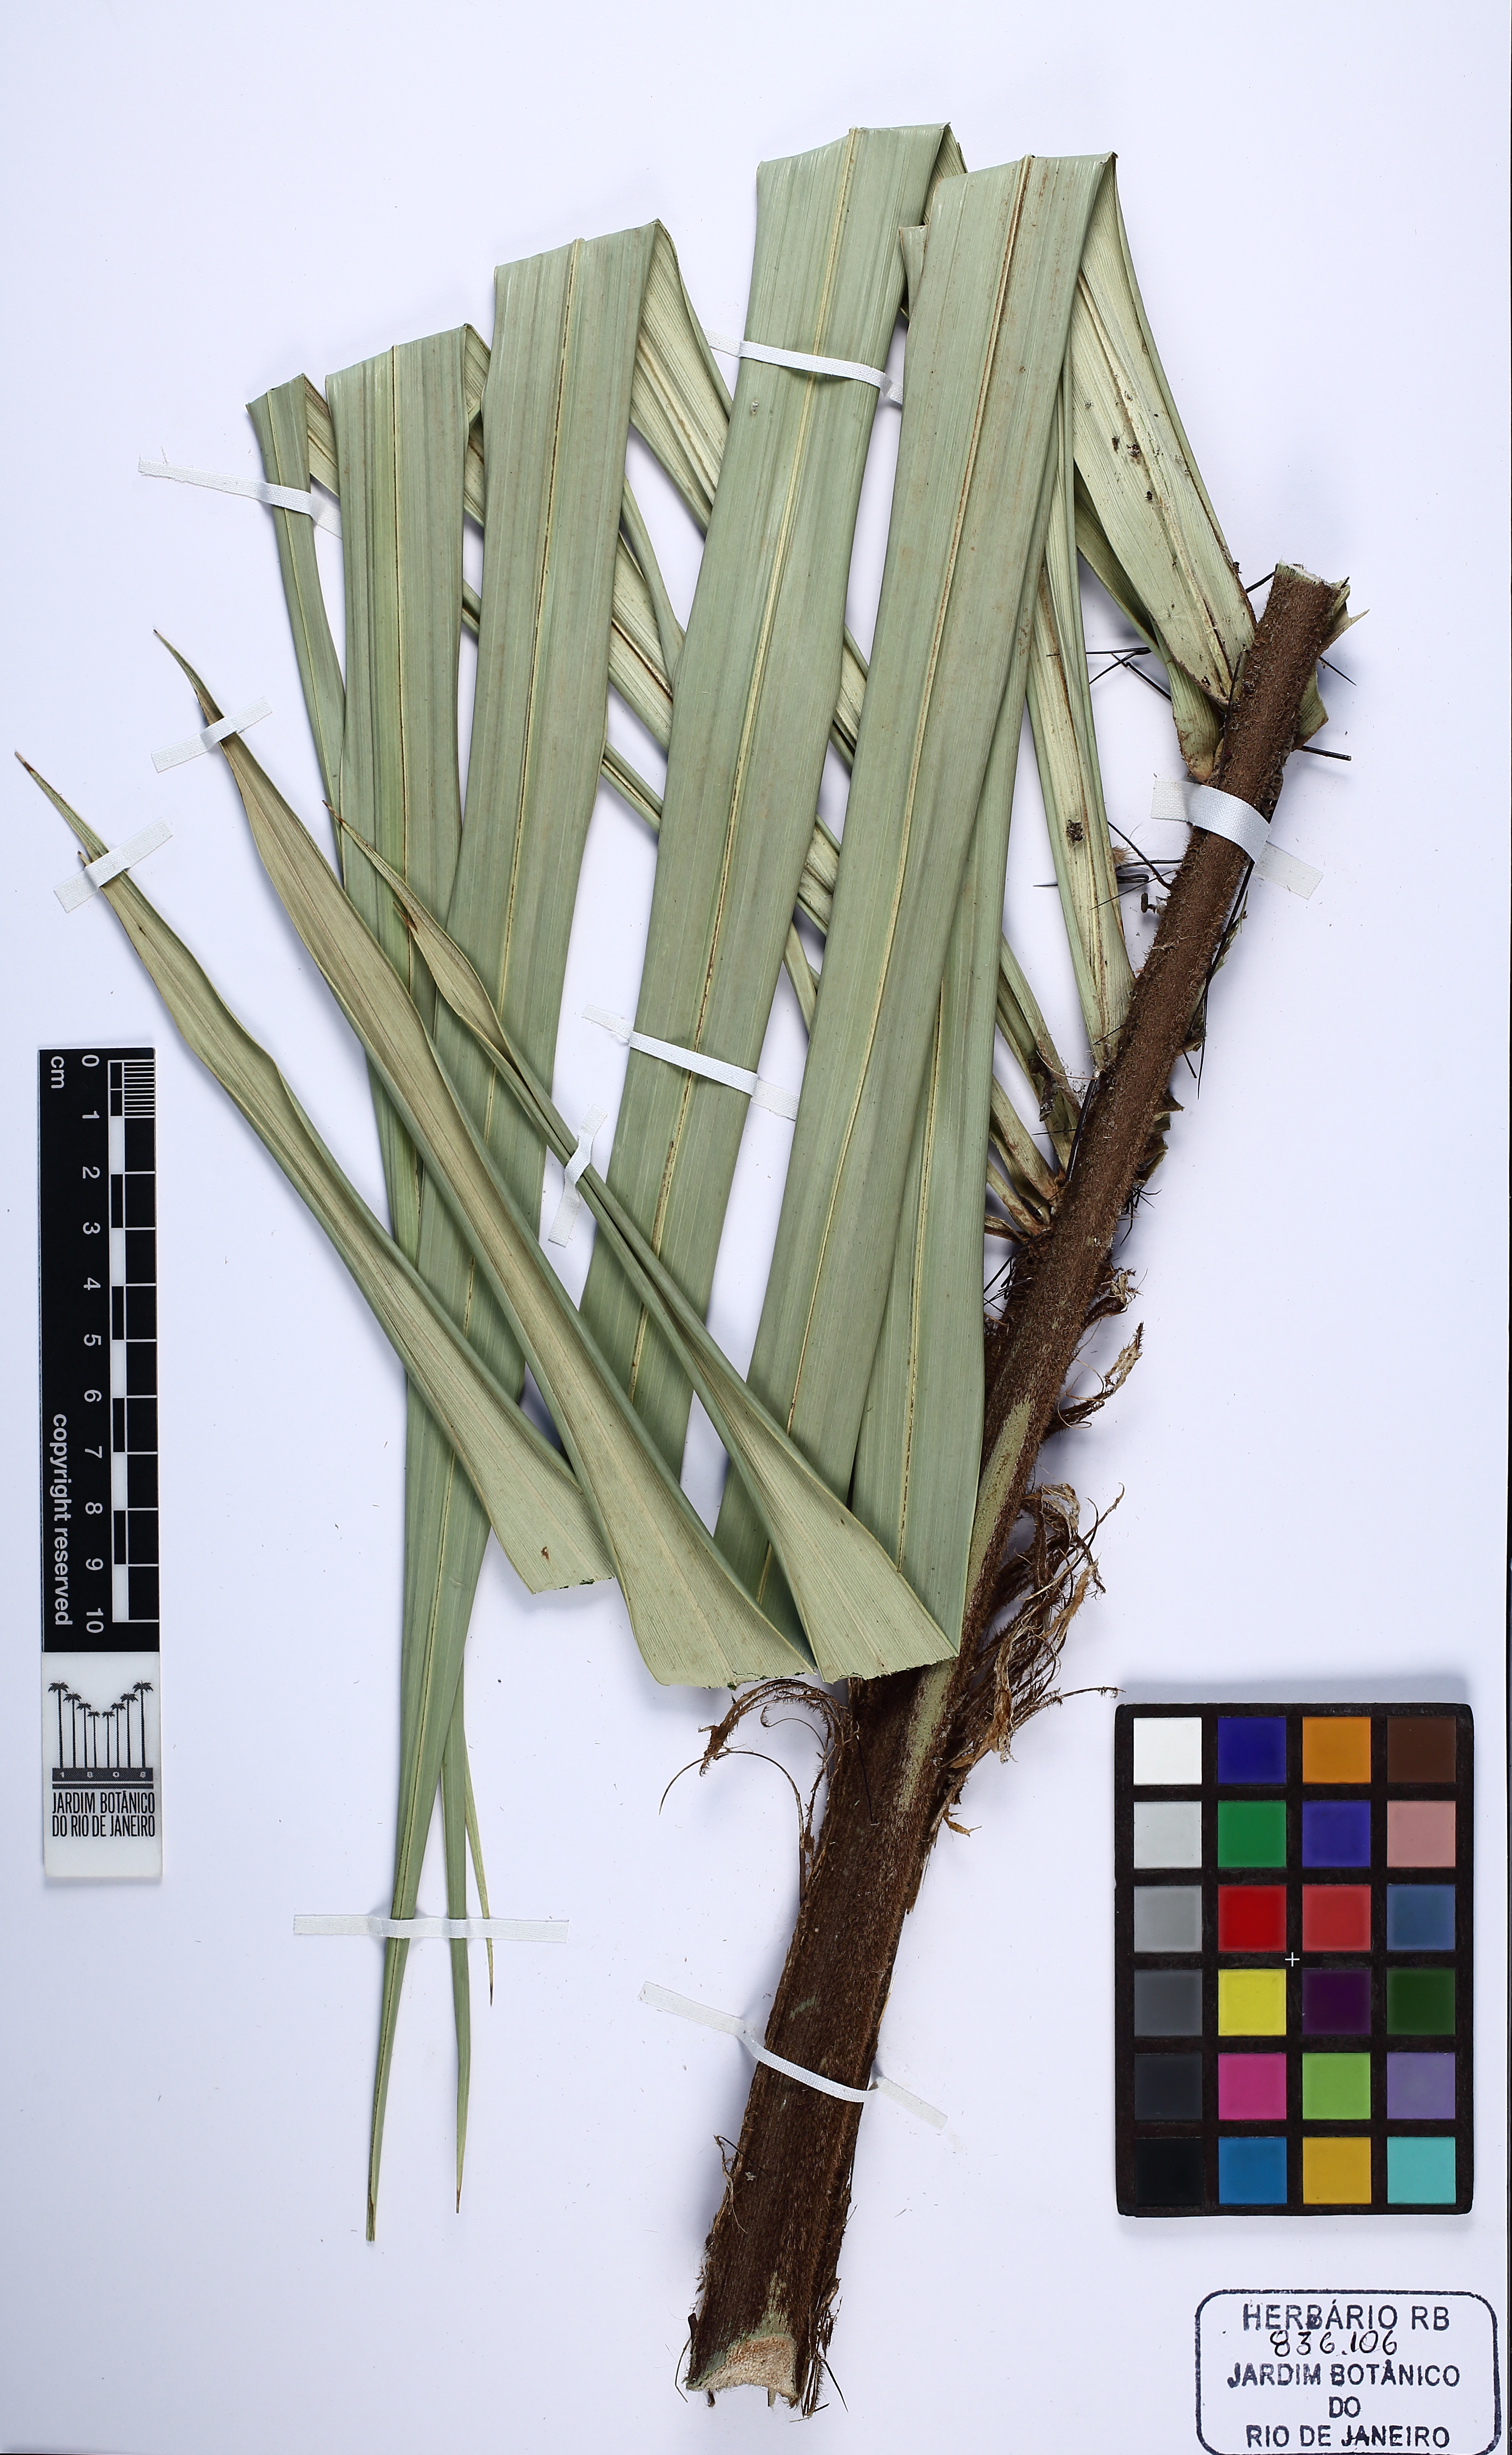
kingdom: Plantae
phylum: Tracheophyta
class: Liliopsida
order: Arecales
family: Arecaceae
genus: Astrocaryum
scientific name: Astrocaryum
